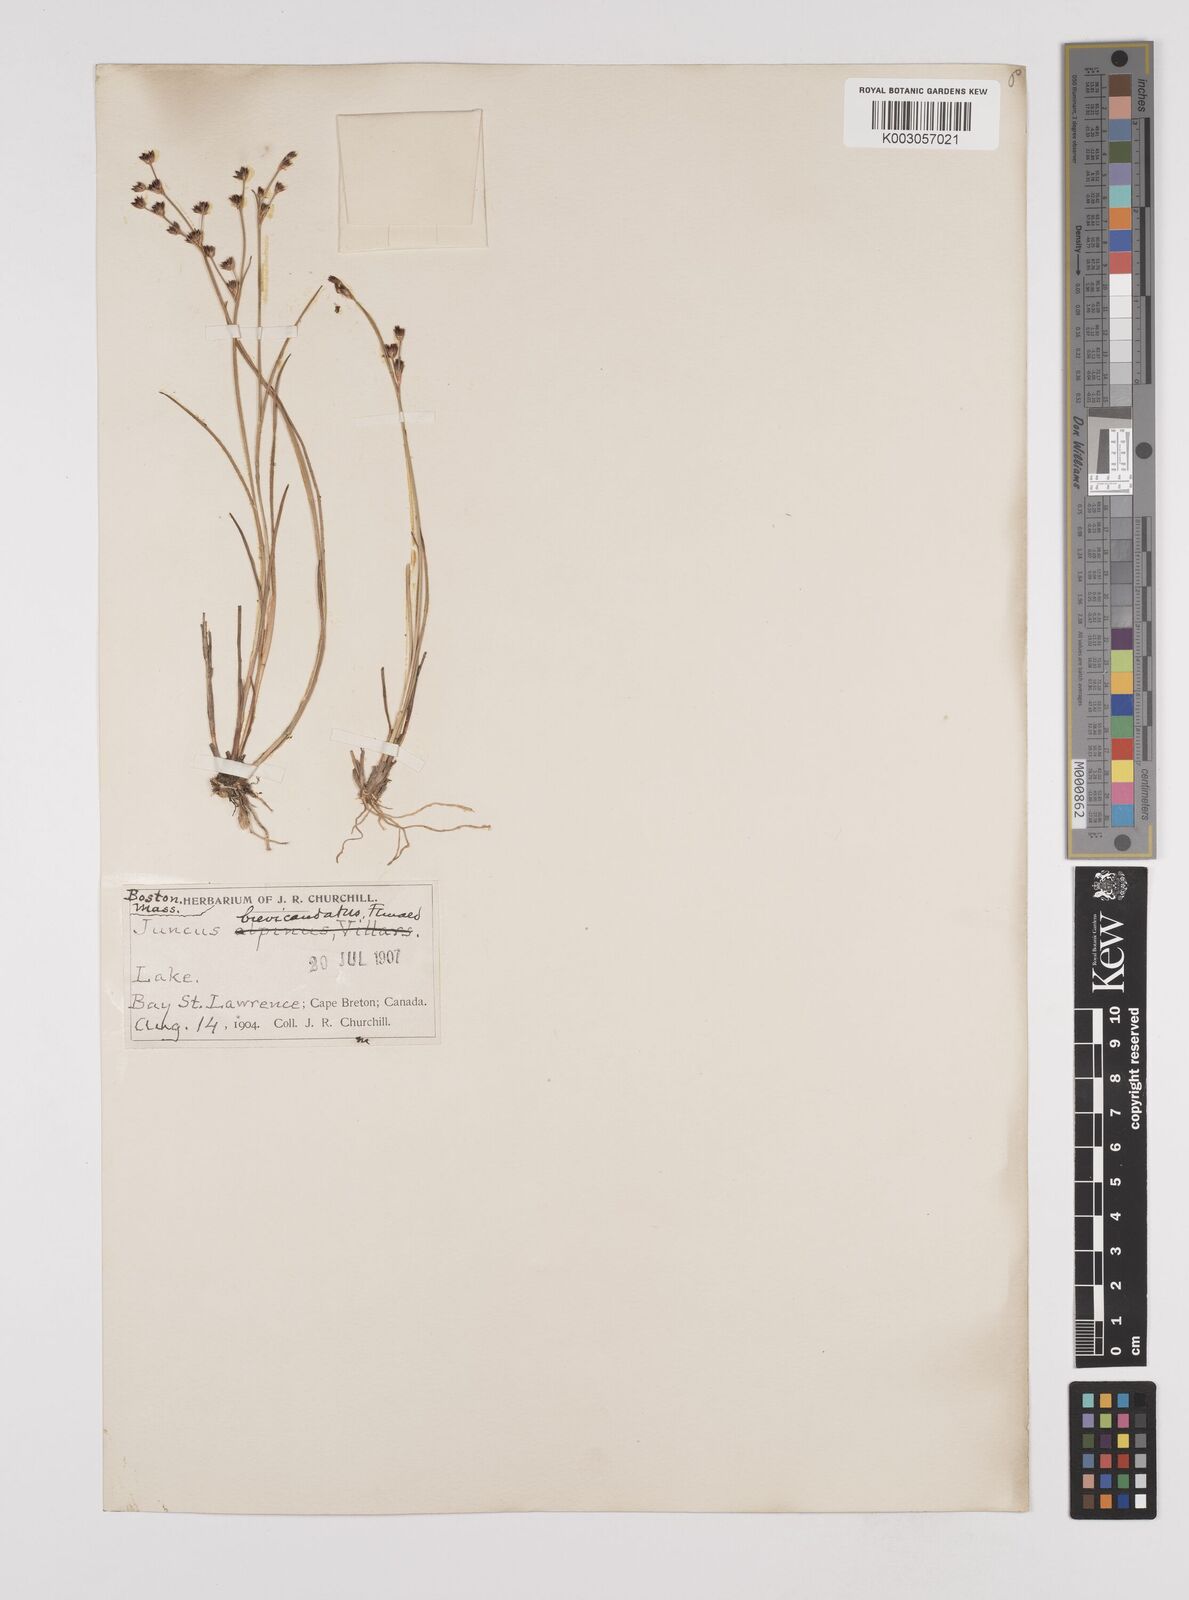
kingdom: Plantae
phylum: Tracheophyta
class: Liliopsida
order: Poales
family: Juncaceae
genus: Juncus
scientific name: Juncus canadensis
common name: Canada rush
